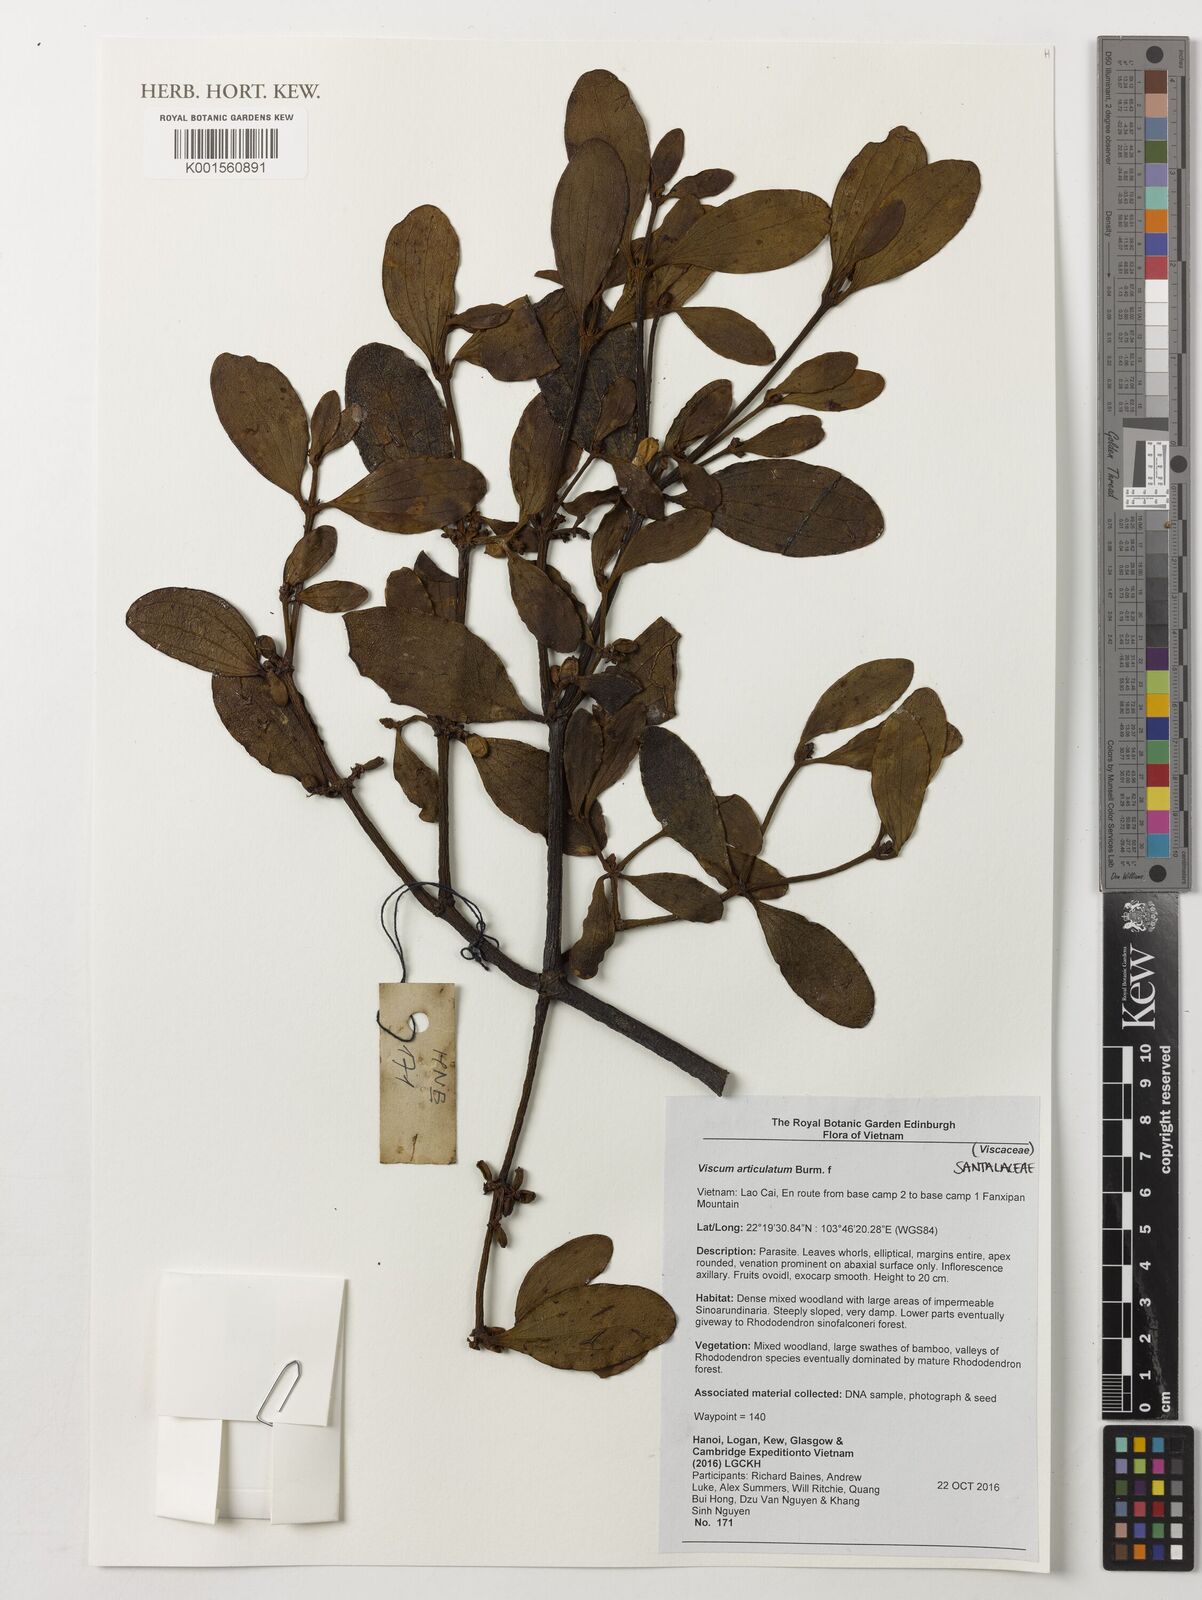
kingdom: Plantae
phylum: Tracheophyta
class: Magnoliopsida
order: Santalales
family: Viscaceae
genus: Viscum
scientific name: Viscum articulatum
